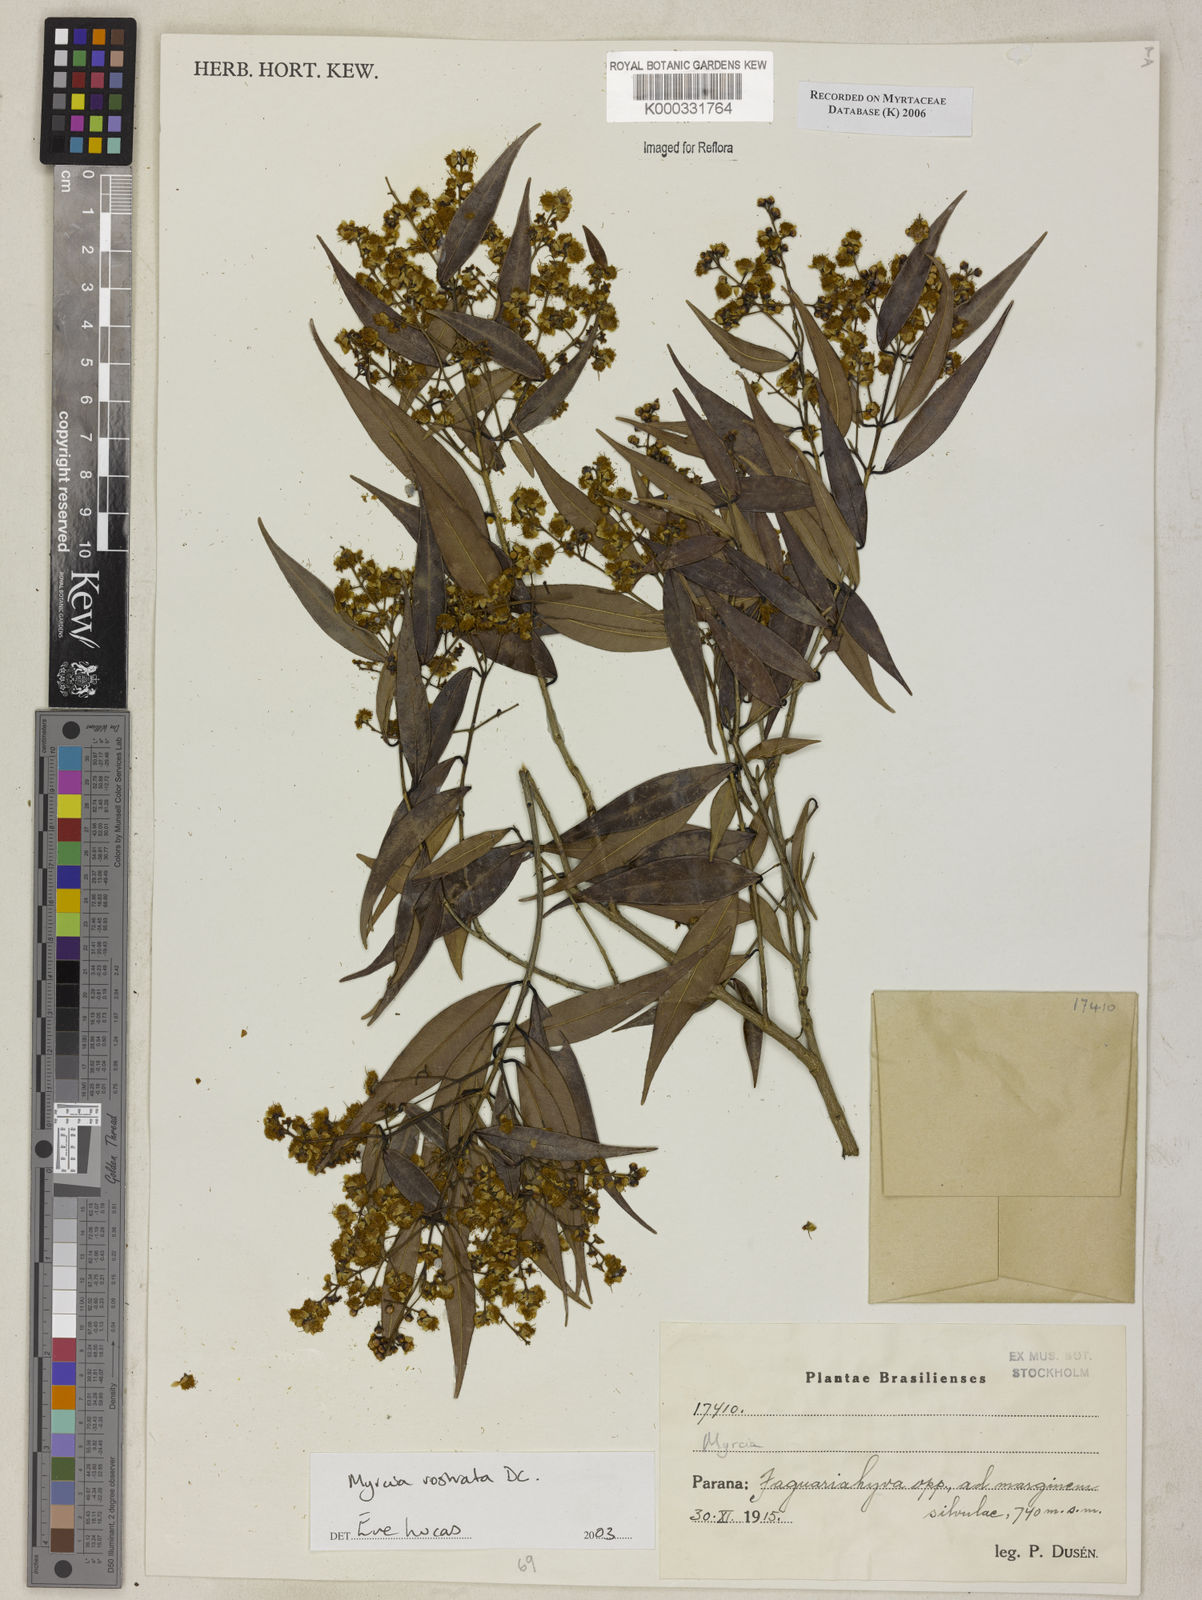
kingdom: Plantae
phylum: Tracheophyta
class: Magnoliopsida
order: Myrtales
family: Myrtaceae
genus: Myrcia
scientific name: Myrcia splendens
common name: Surinam cherry
